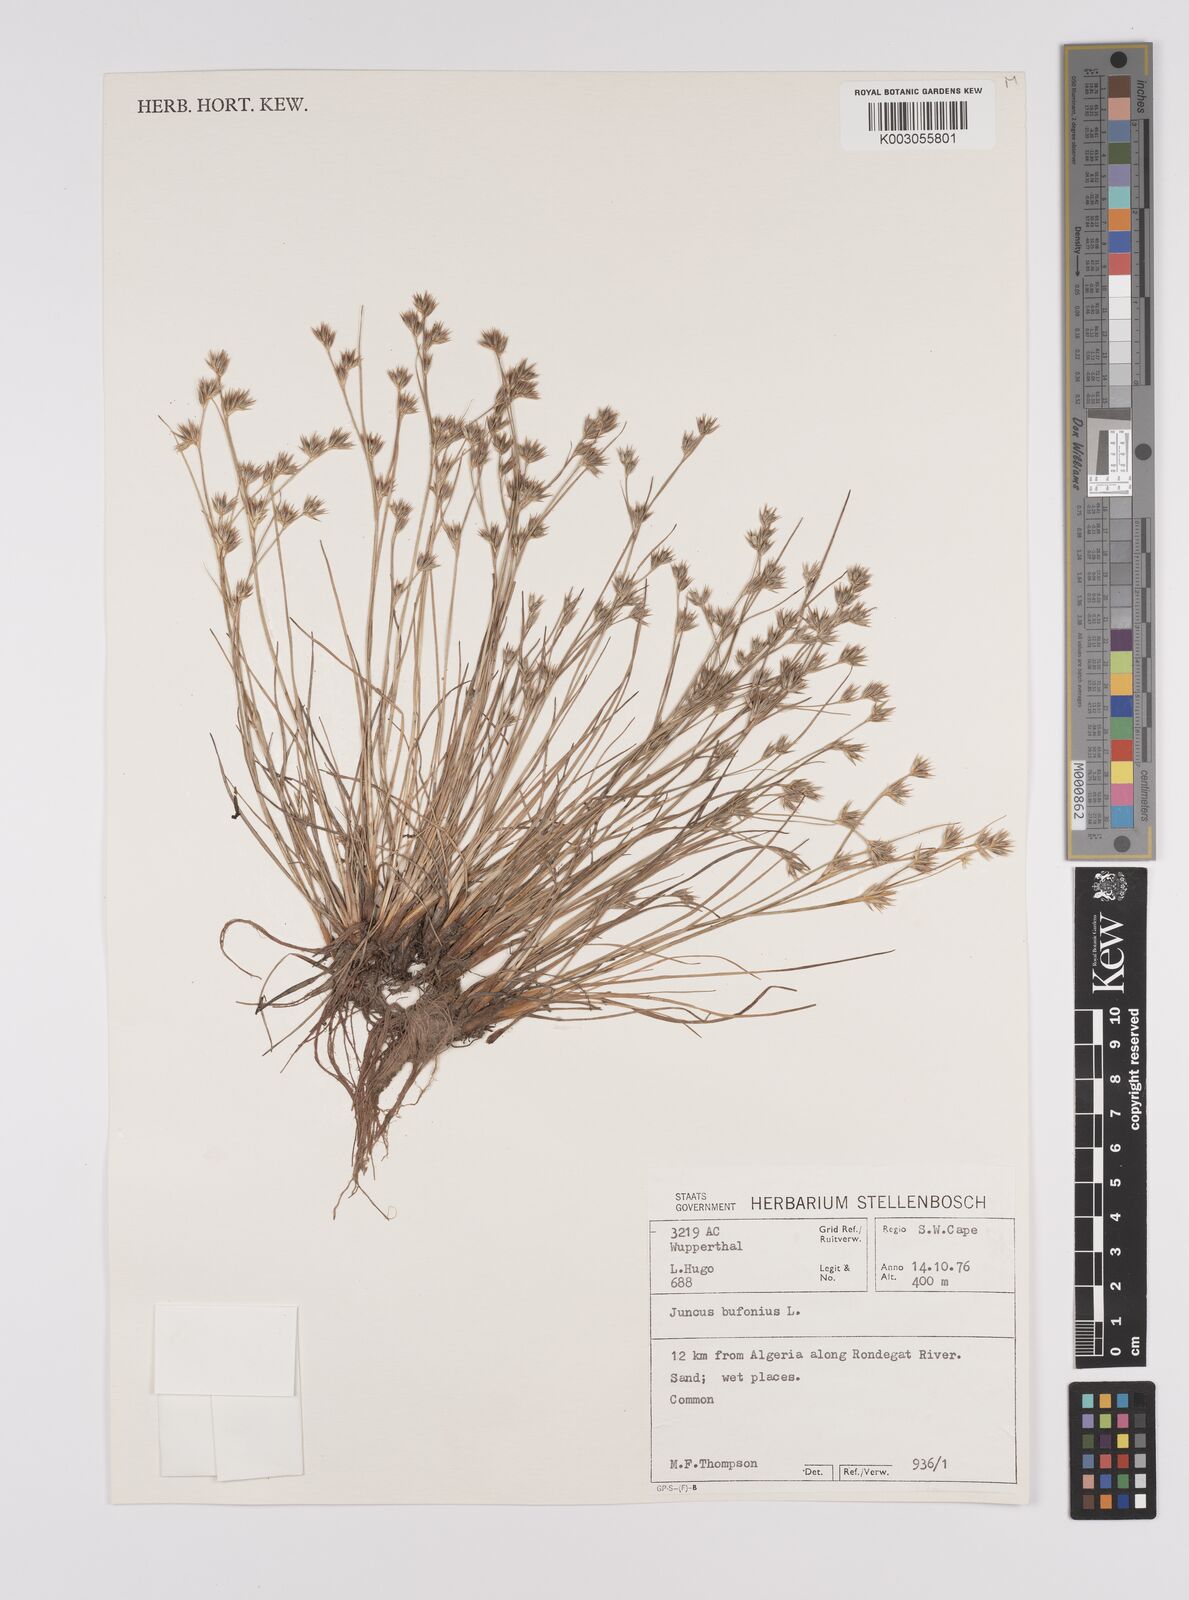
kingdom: Plantae
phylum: Tracheophyta
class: Liliopsida
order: Poales
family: Juncaceae
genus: Juncus
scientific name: Juncus bufonius
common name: Toad rush
